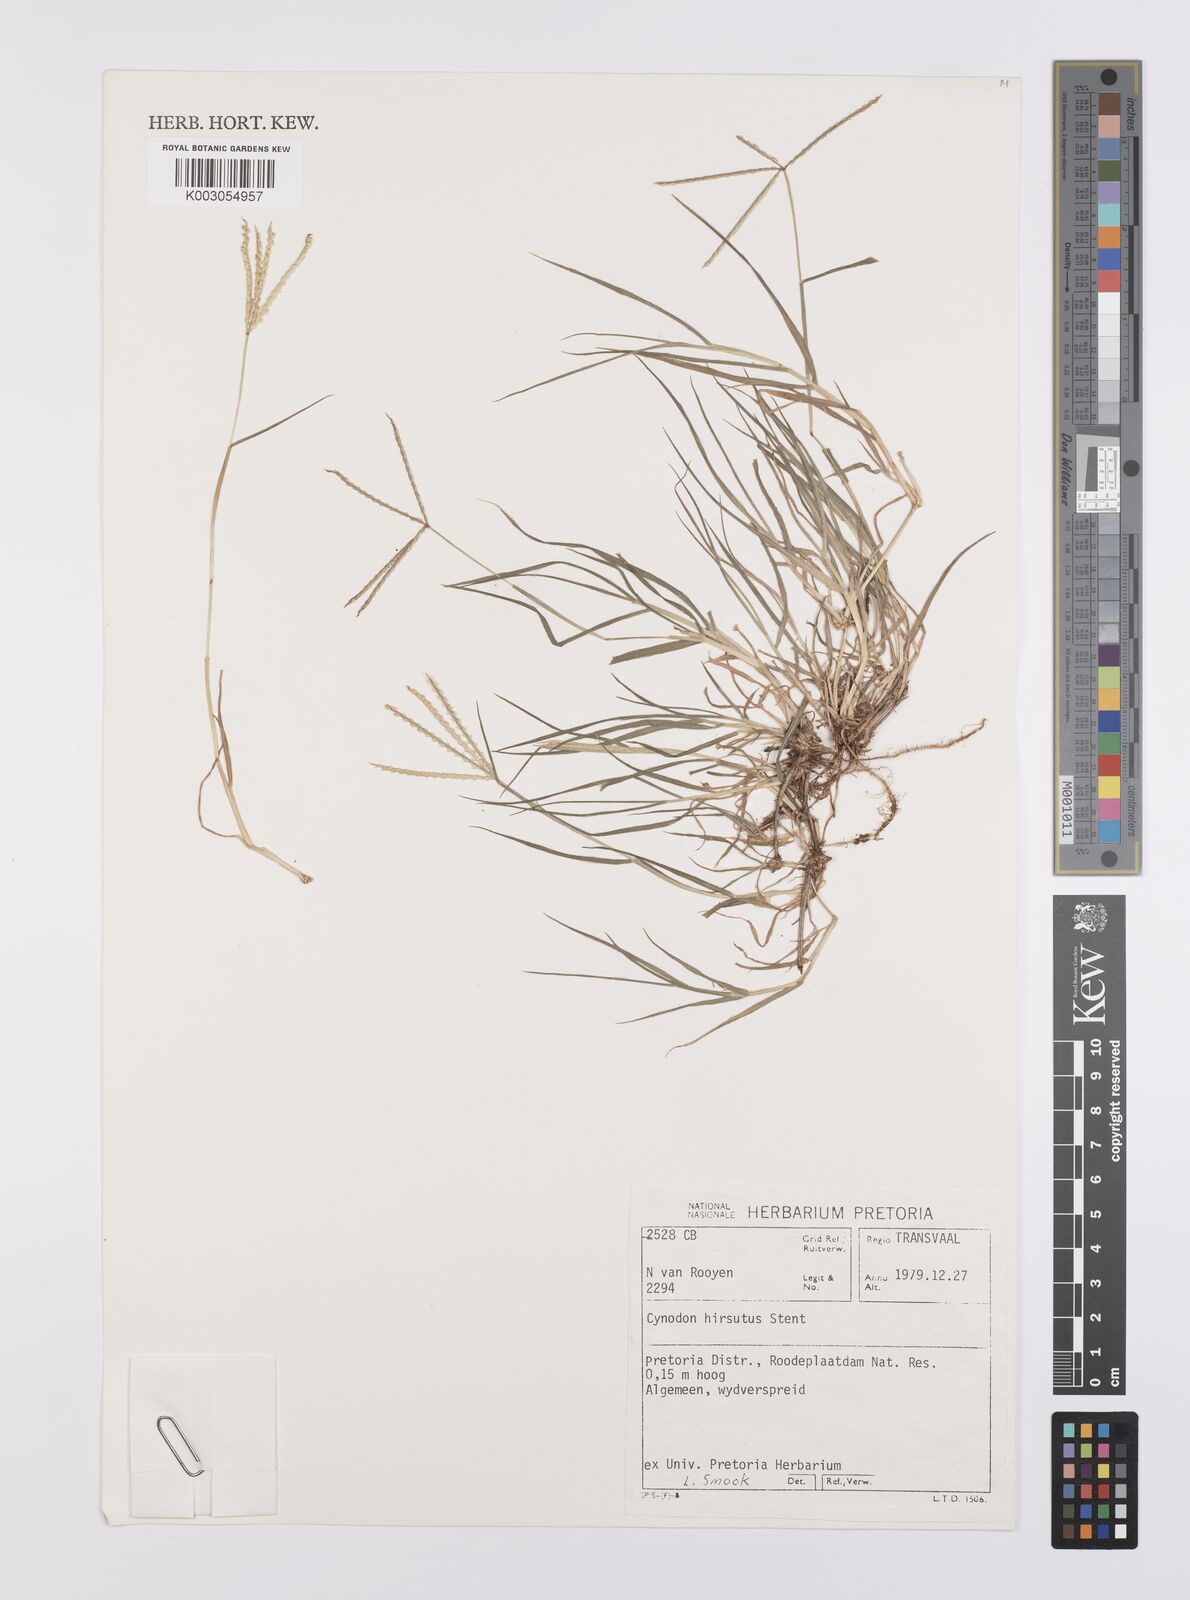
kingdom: Plantae
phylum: Tracheophyta
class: Liliopsida
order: Poales
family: Poaceae
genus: Cynodon
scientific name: Cynodon incompletus
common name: African bermuda-grass
